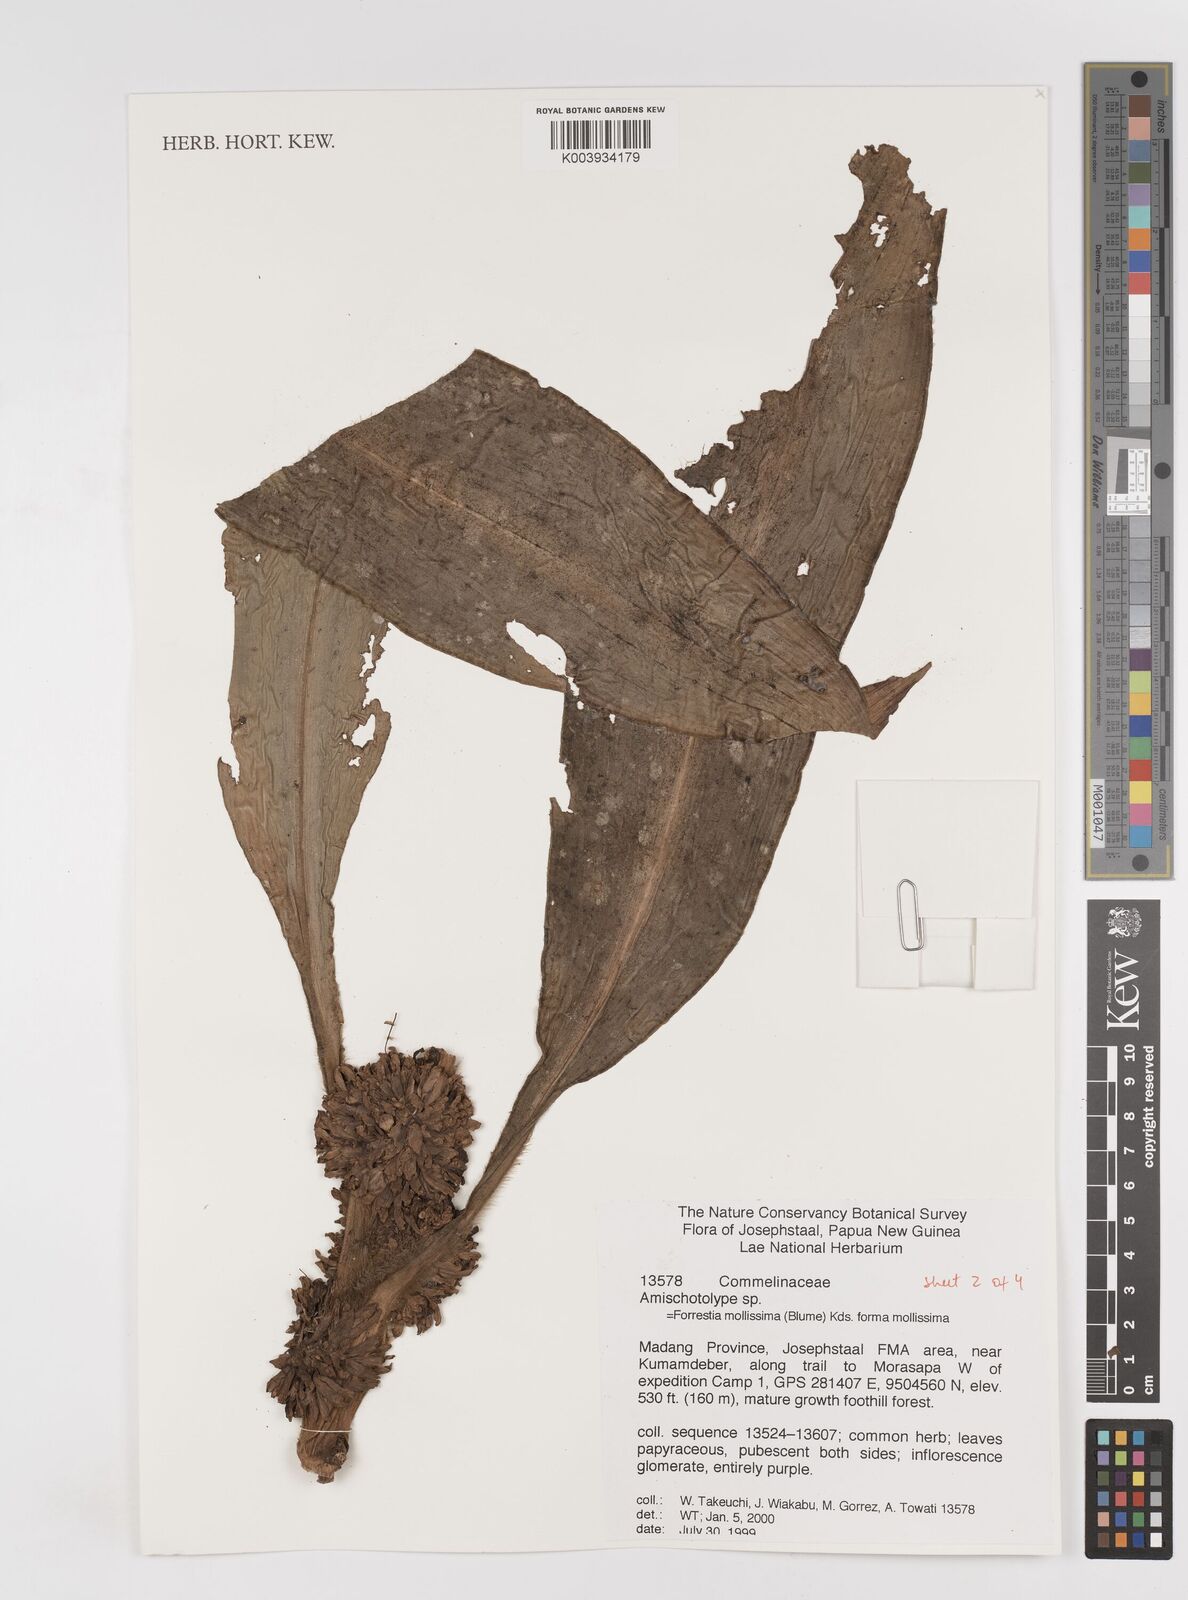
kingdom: Plantae
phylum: Tracheophyta
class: Liliopsida
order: Commelinales
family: Commelinaceae
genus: Amischotolype
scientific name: Amischotolype mollissima
